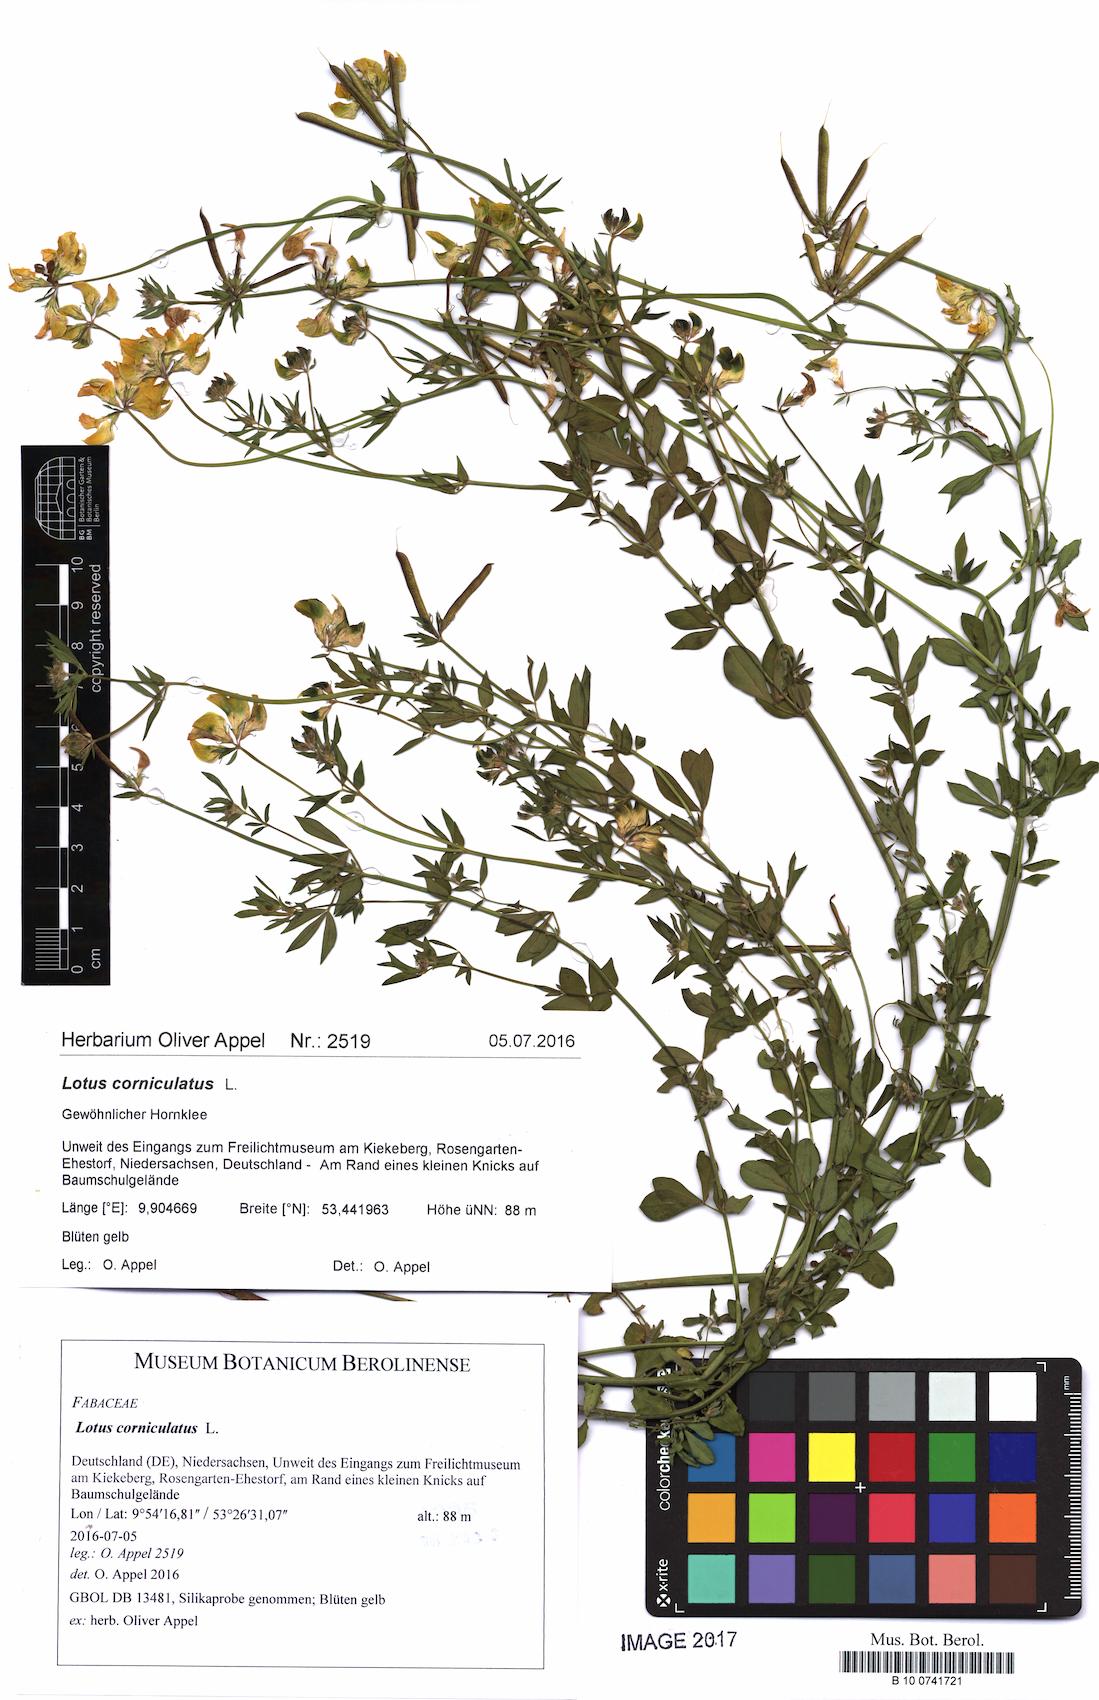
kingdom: Plantae
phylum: Tracheophyta
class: Magnoliopsida
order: Fabales
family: Fabaceae
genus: Lotus
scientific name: Lotus corniculatus
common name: Common bird's-foot-trefoil
